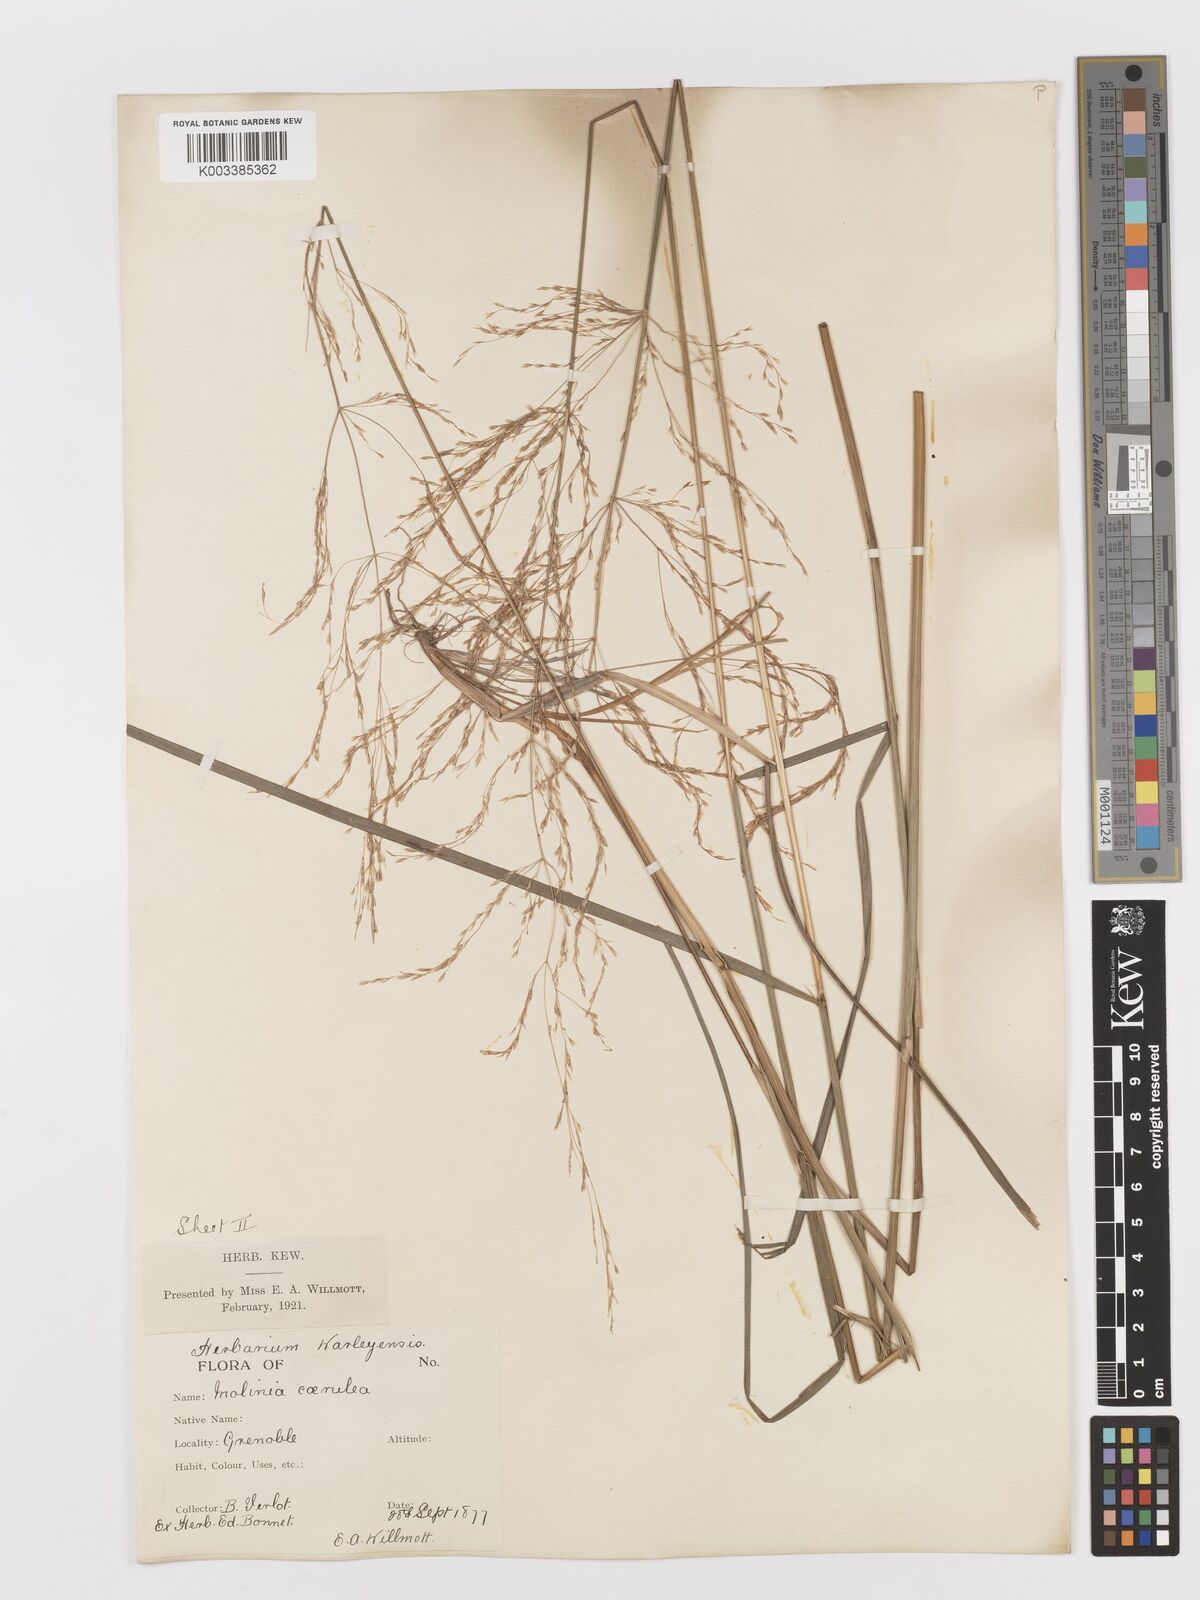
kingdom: Plantae
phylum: Tracheophyta
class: Liliopsida
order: Poales
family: Poaceae
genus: Deschampsia
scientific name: Deschampsia cespitosa
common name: Tufted hair-grass
